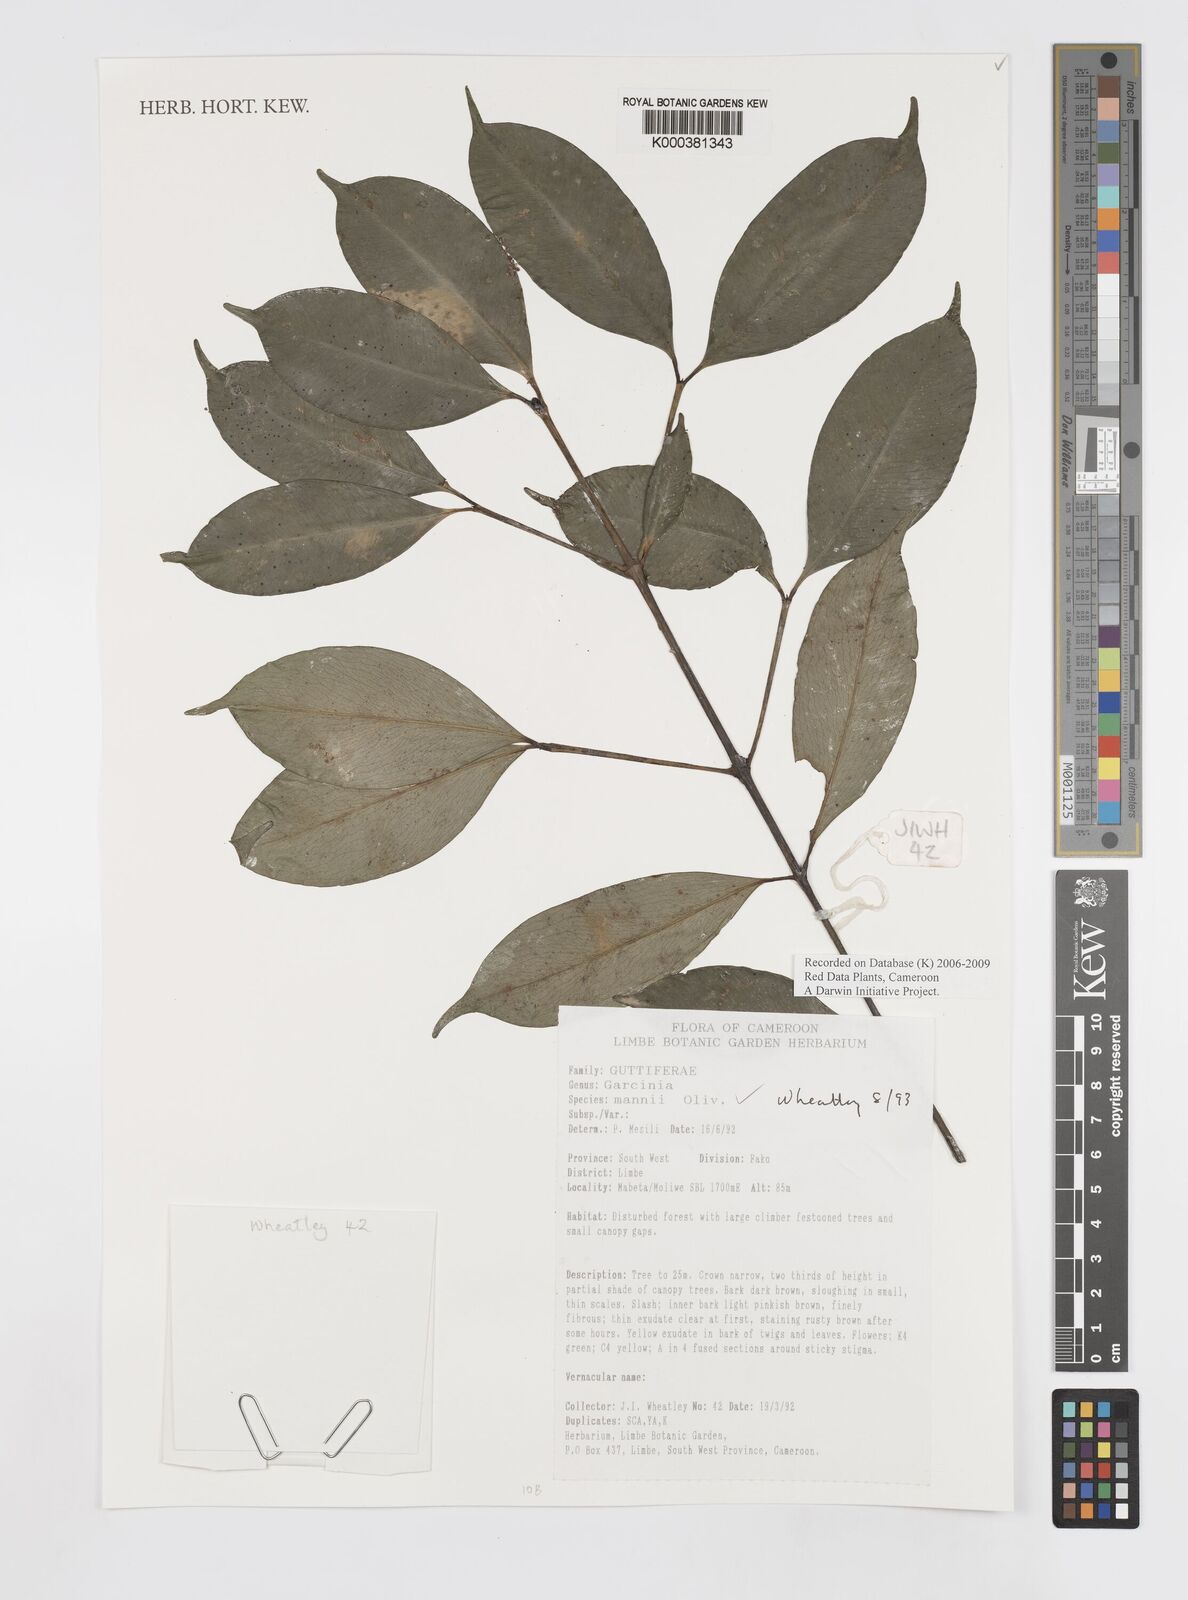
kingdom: Plantae
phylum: Tracheophyta
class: Magnoliopsida
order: Malpighiales
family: Clusiaceae
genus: Garcinia
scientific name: Garcinia mannii
